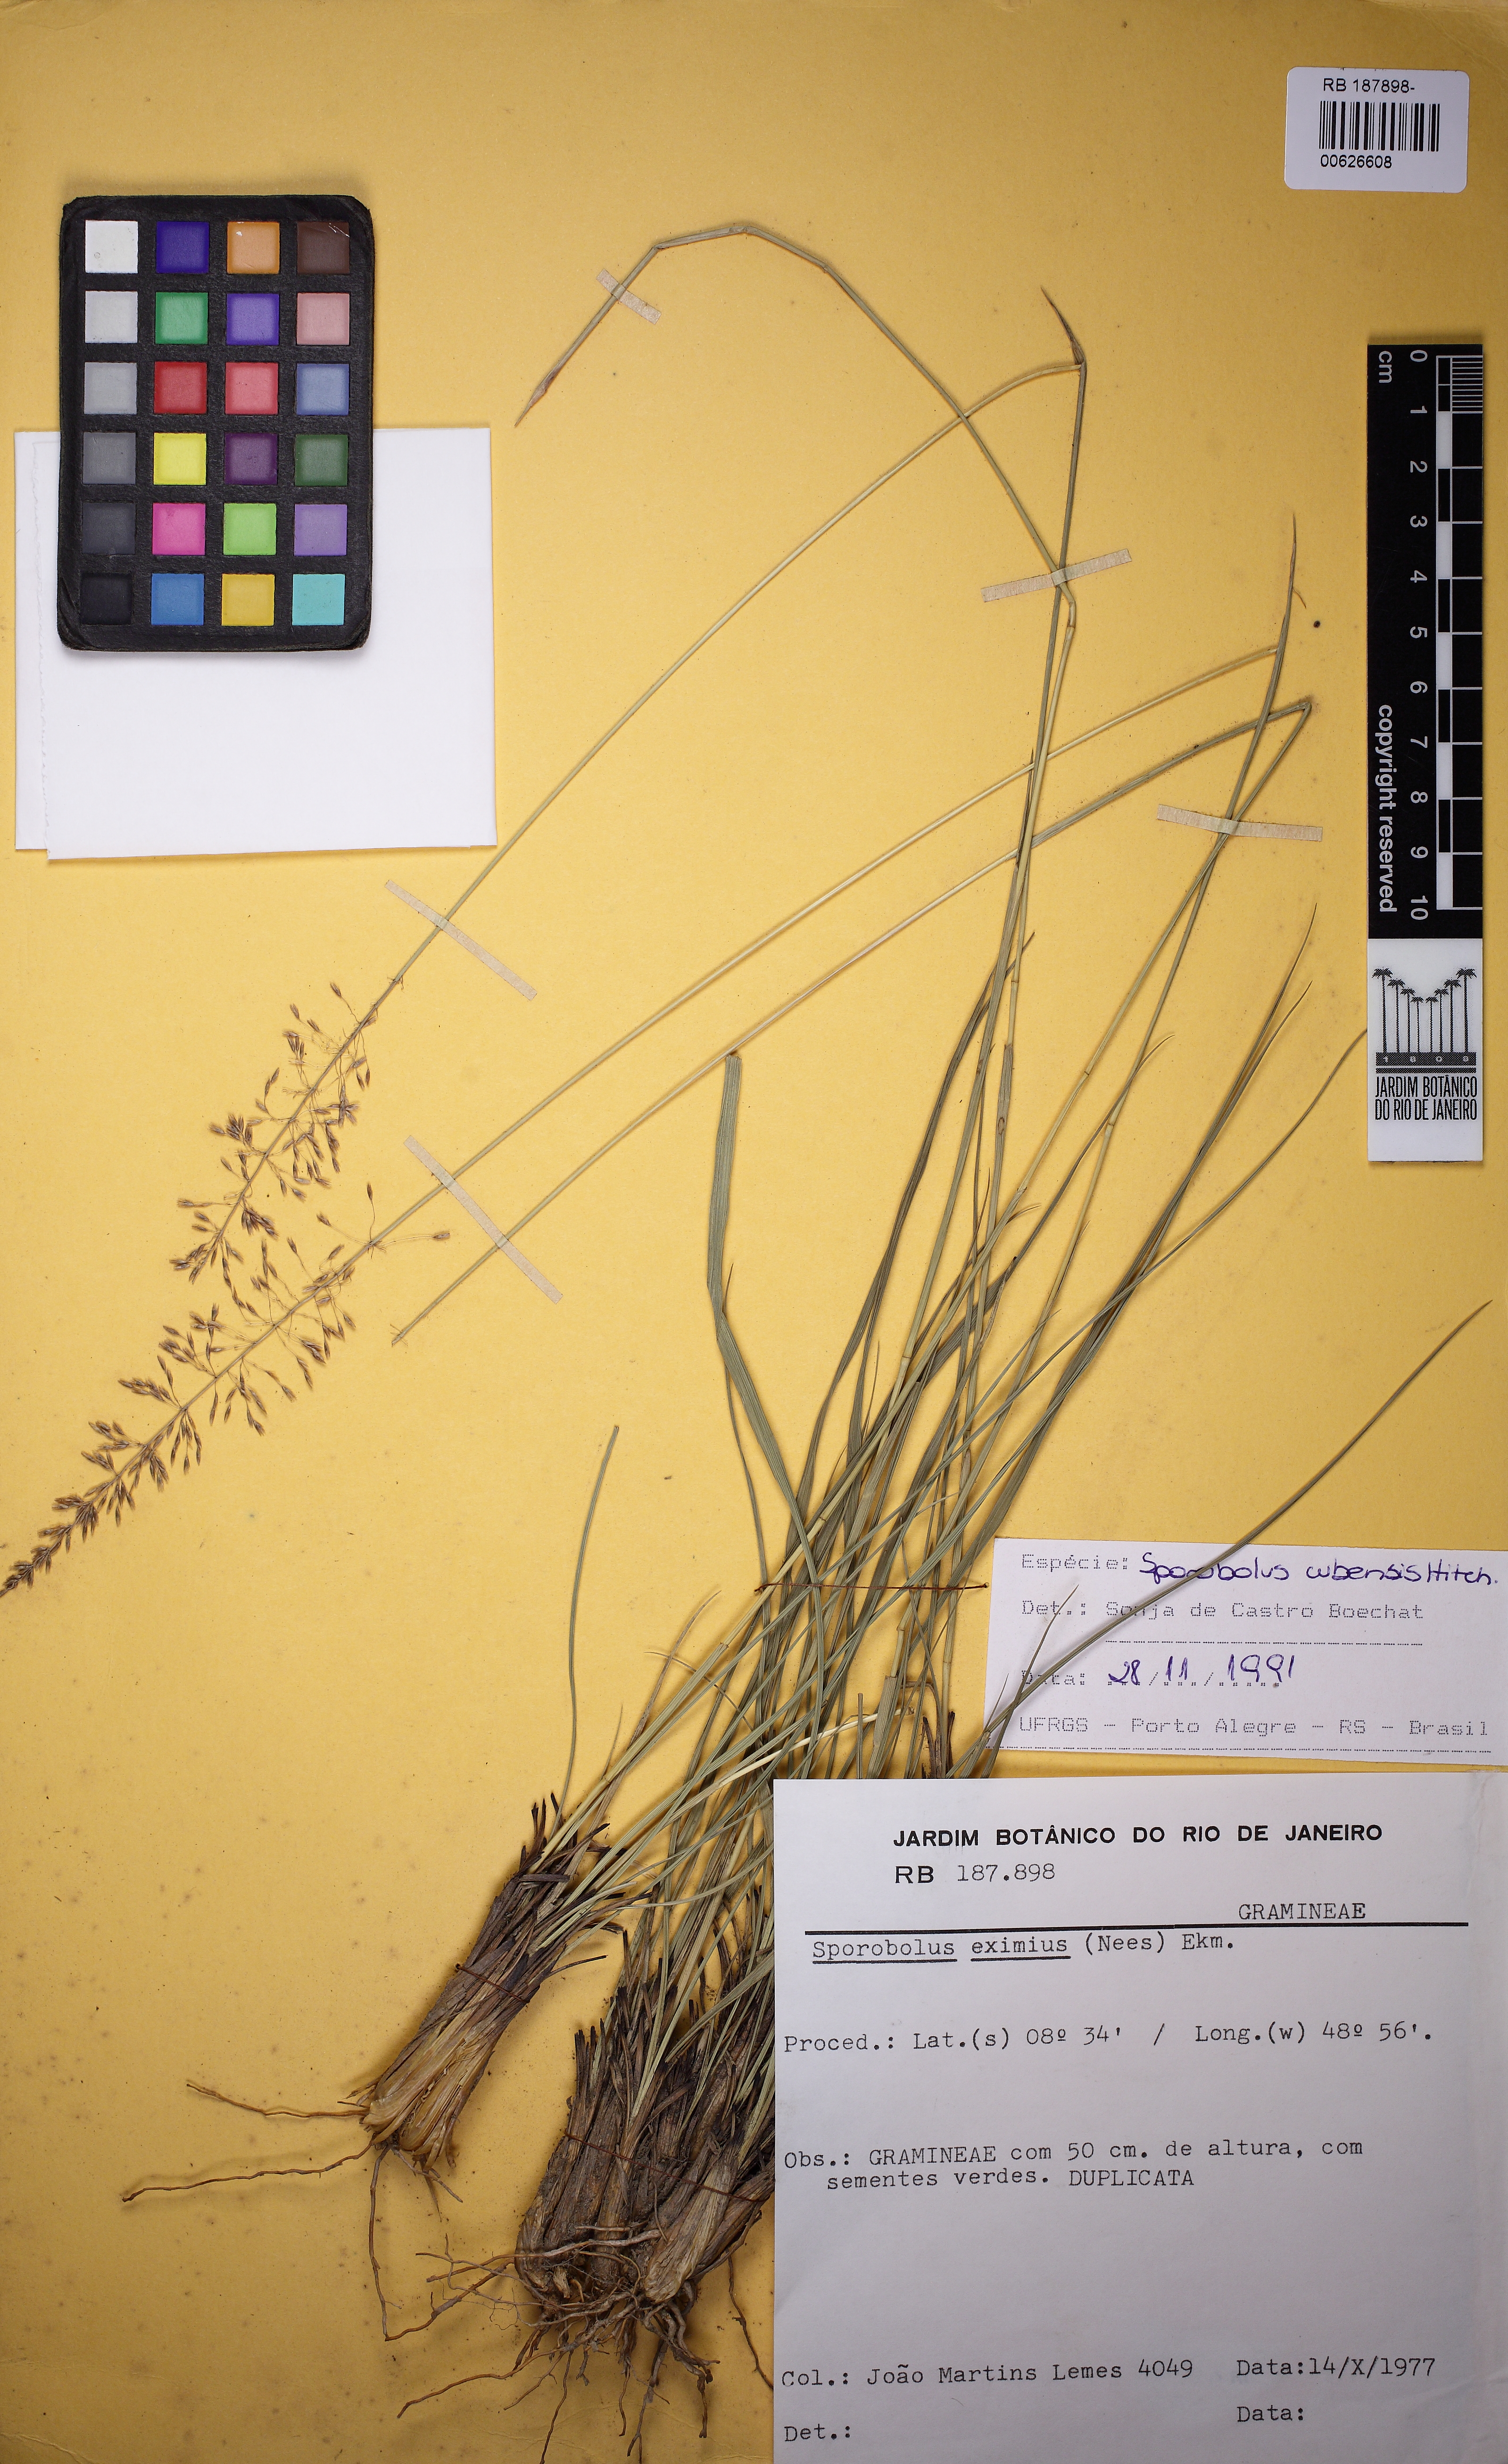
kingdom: Plantae
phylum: Tracheophyta
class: Liliopsida
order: Poales
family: Poaceae
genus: Sporobolus
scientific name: Sporobolus cubensis
